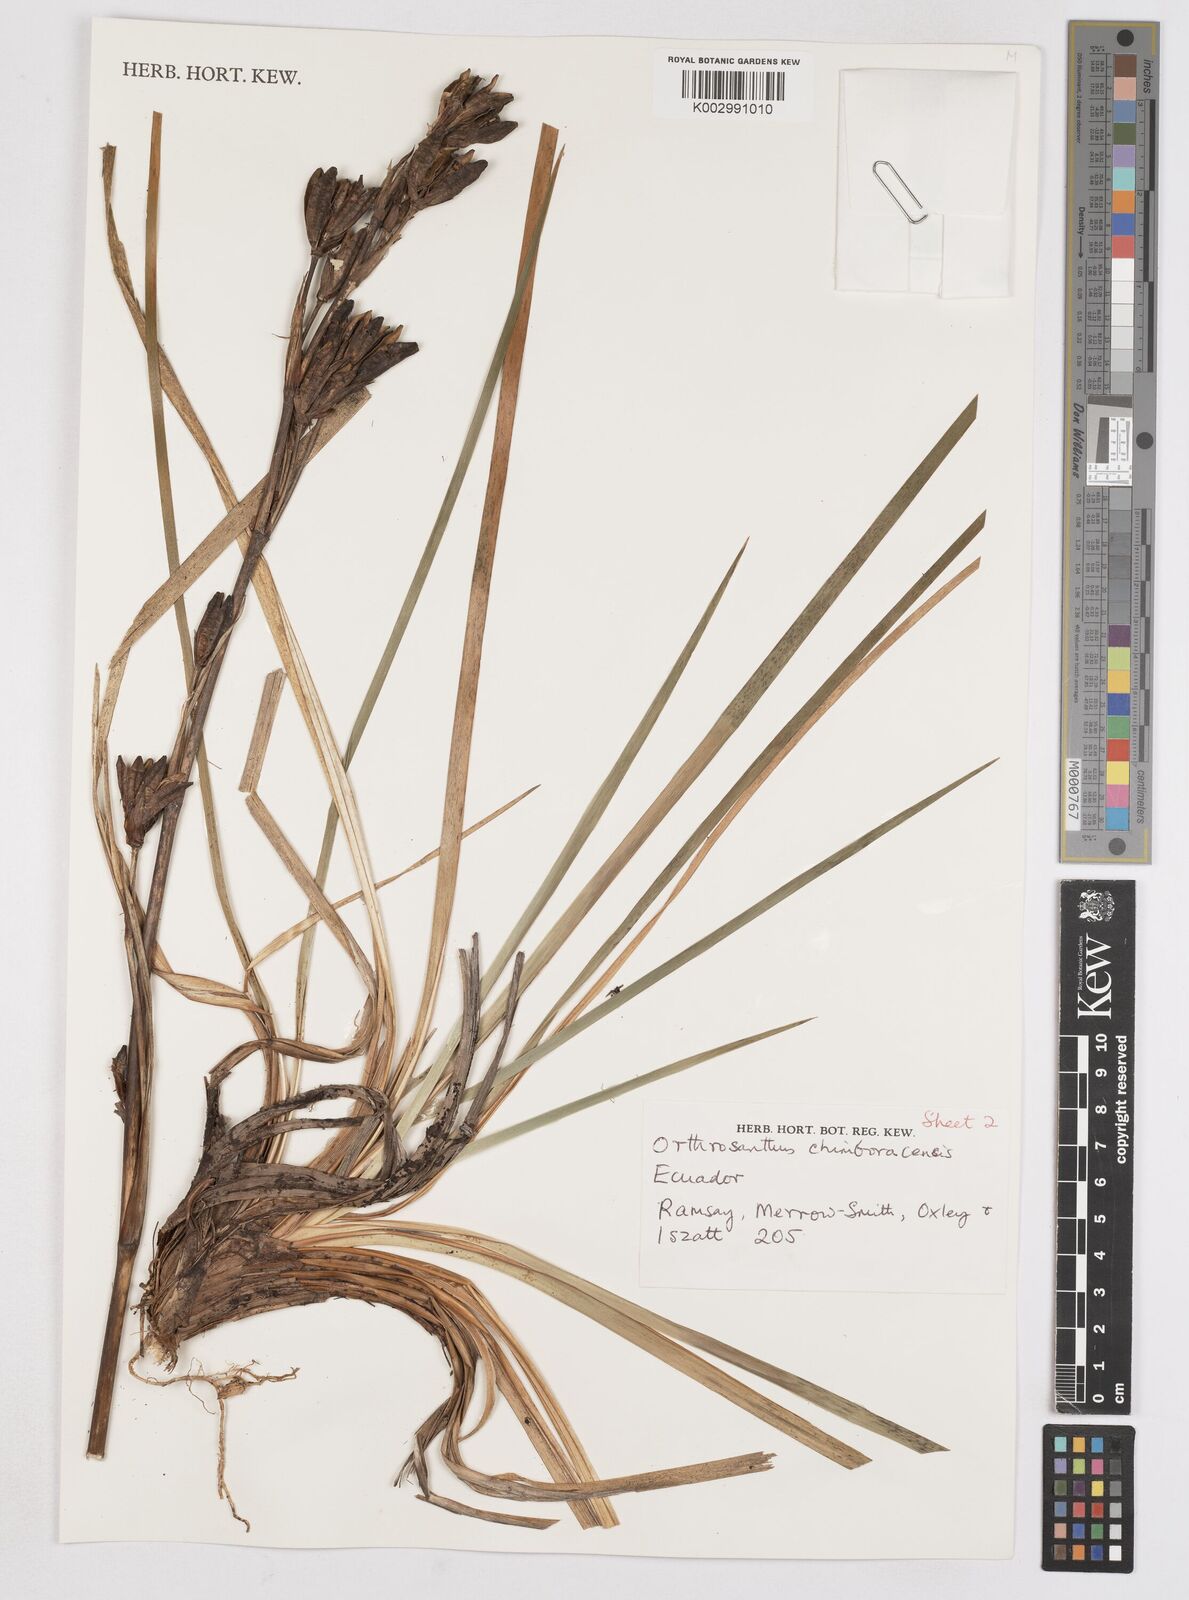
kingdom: Plantae
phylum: Tracheophyta
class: Liliopsida
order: Asparagales
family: Iridaceae
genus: Orthrosanthus
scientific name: Orthrosanthus chimboracensis
